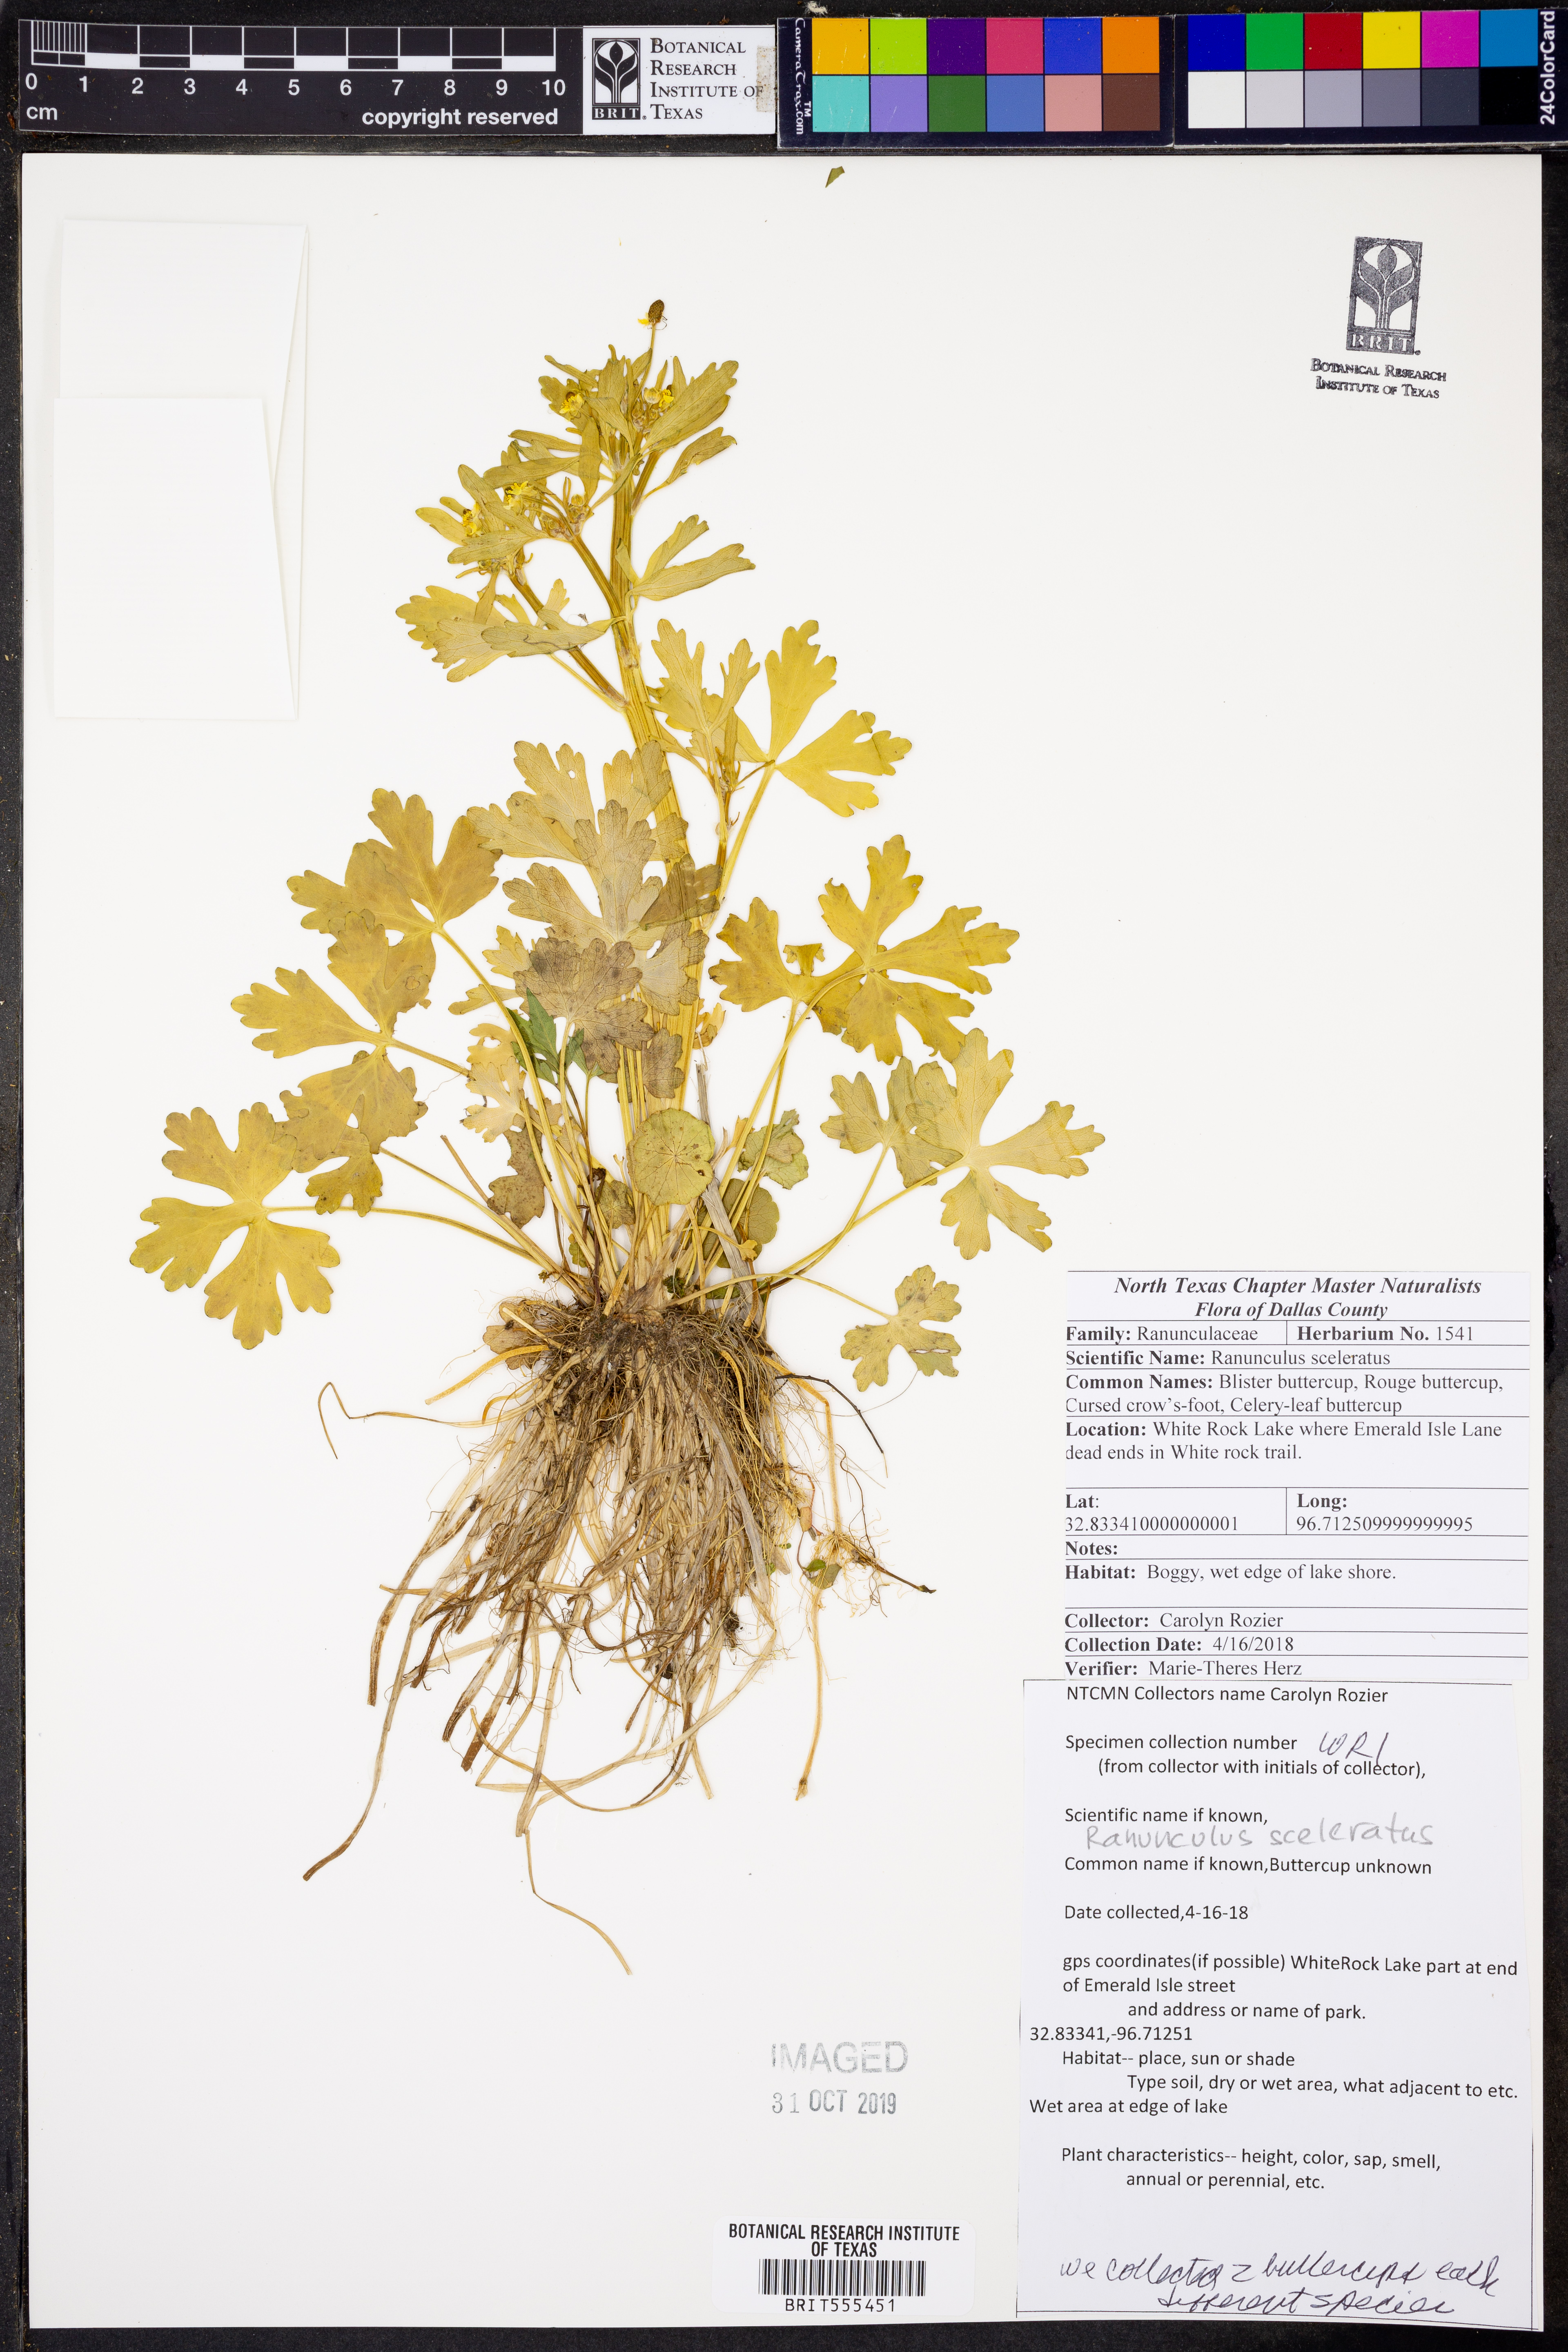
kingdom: Plantae
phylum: Tracheophyta
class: Magnoliopsida
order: Ranunculales
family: Ranunculaceae
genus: Ranunculus
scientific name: Ranunculus sceleratus
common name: Celery-leaved buttercup
